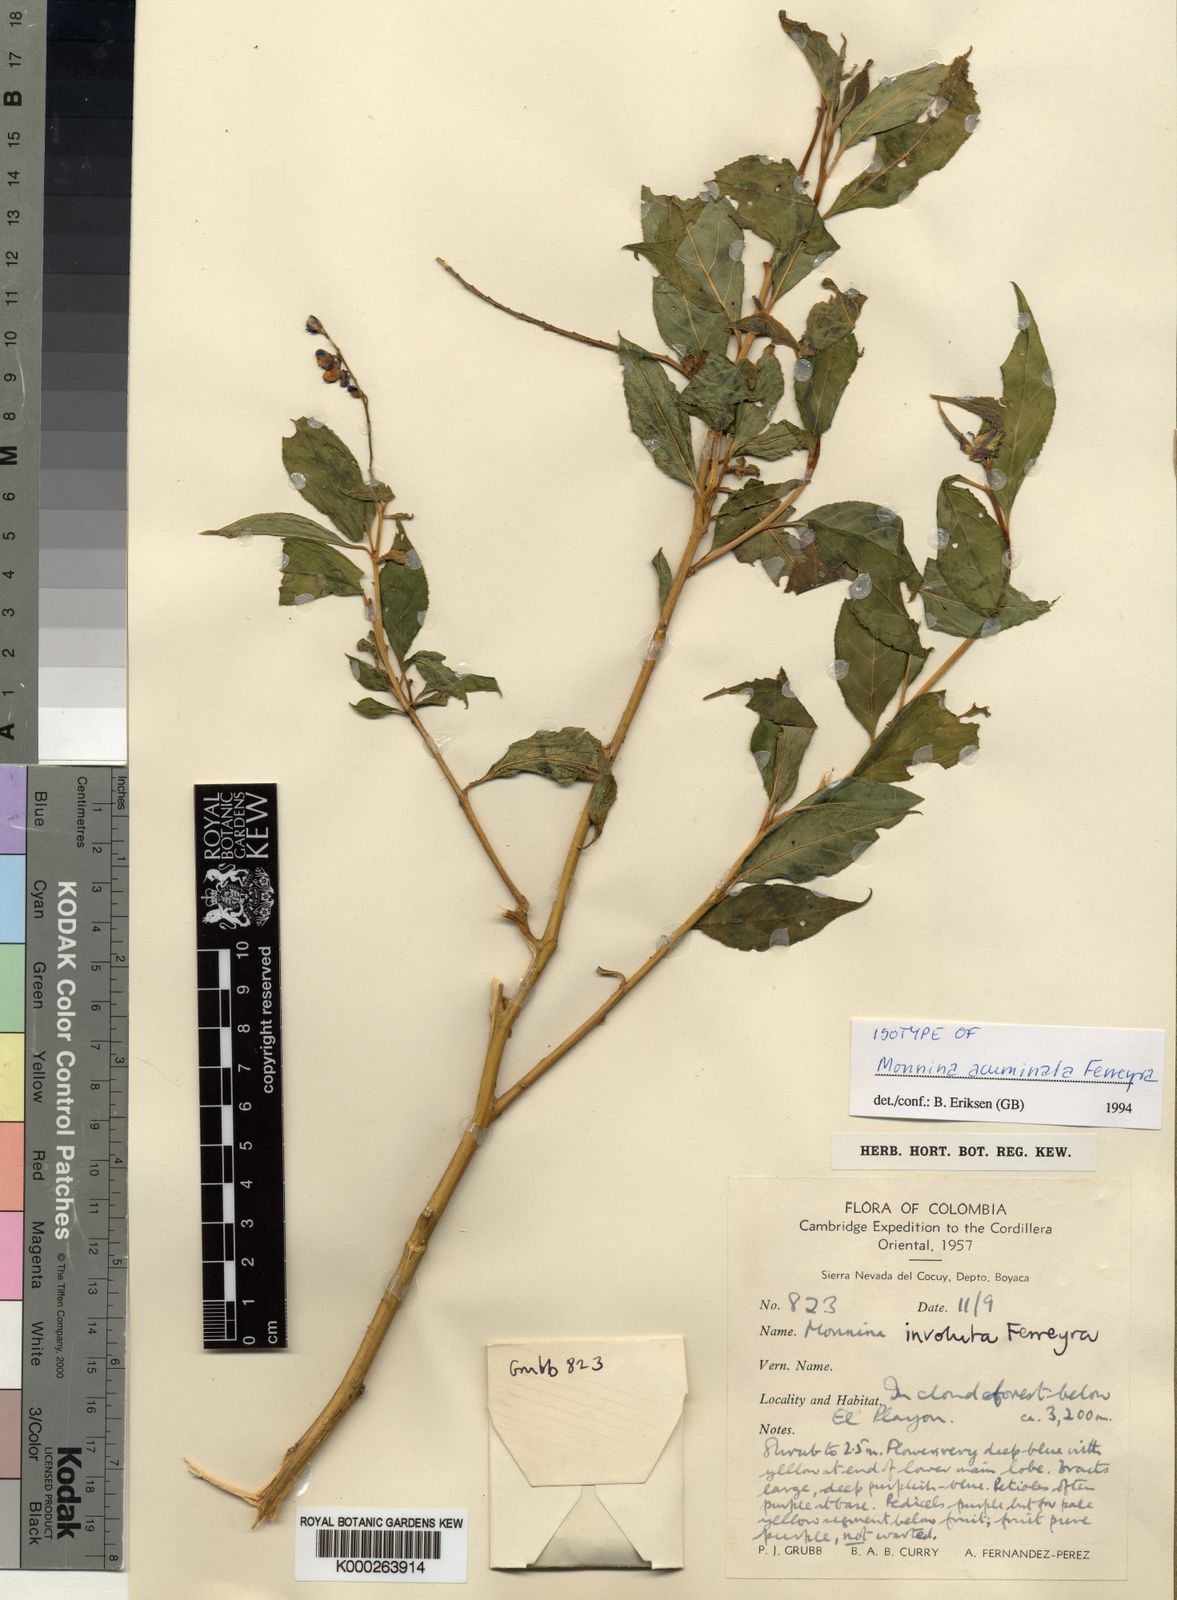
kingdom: Plantae
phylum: Tracheophyta
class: Magnoliopsida
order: Fabales
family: Polygalaceae
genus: Monnina
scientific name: Monnina acuminata
